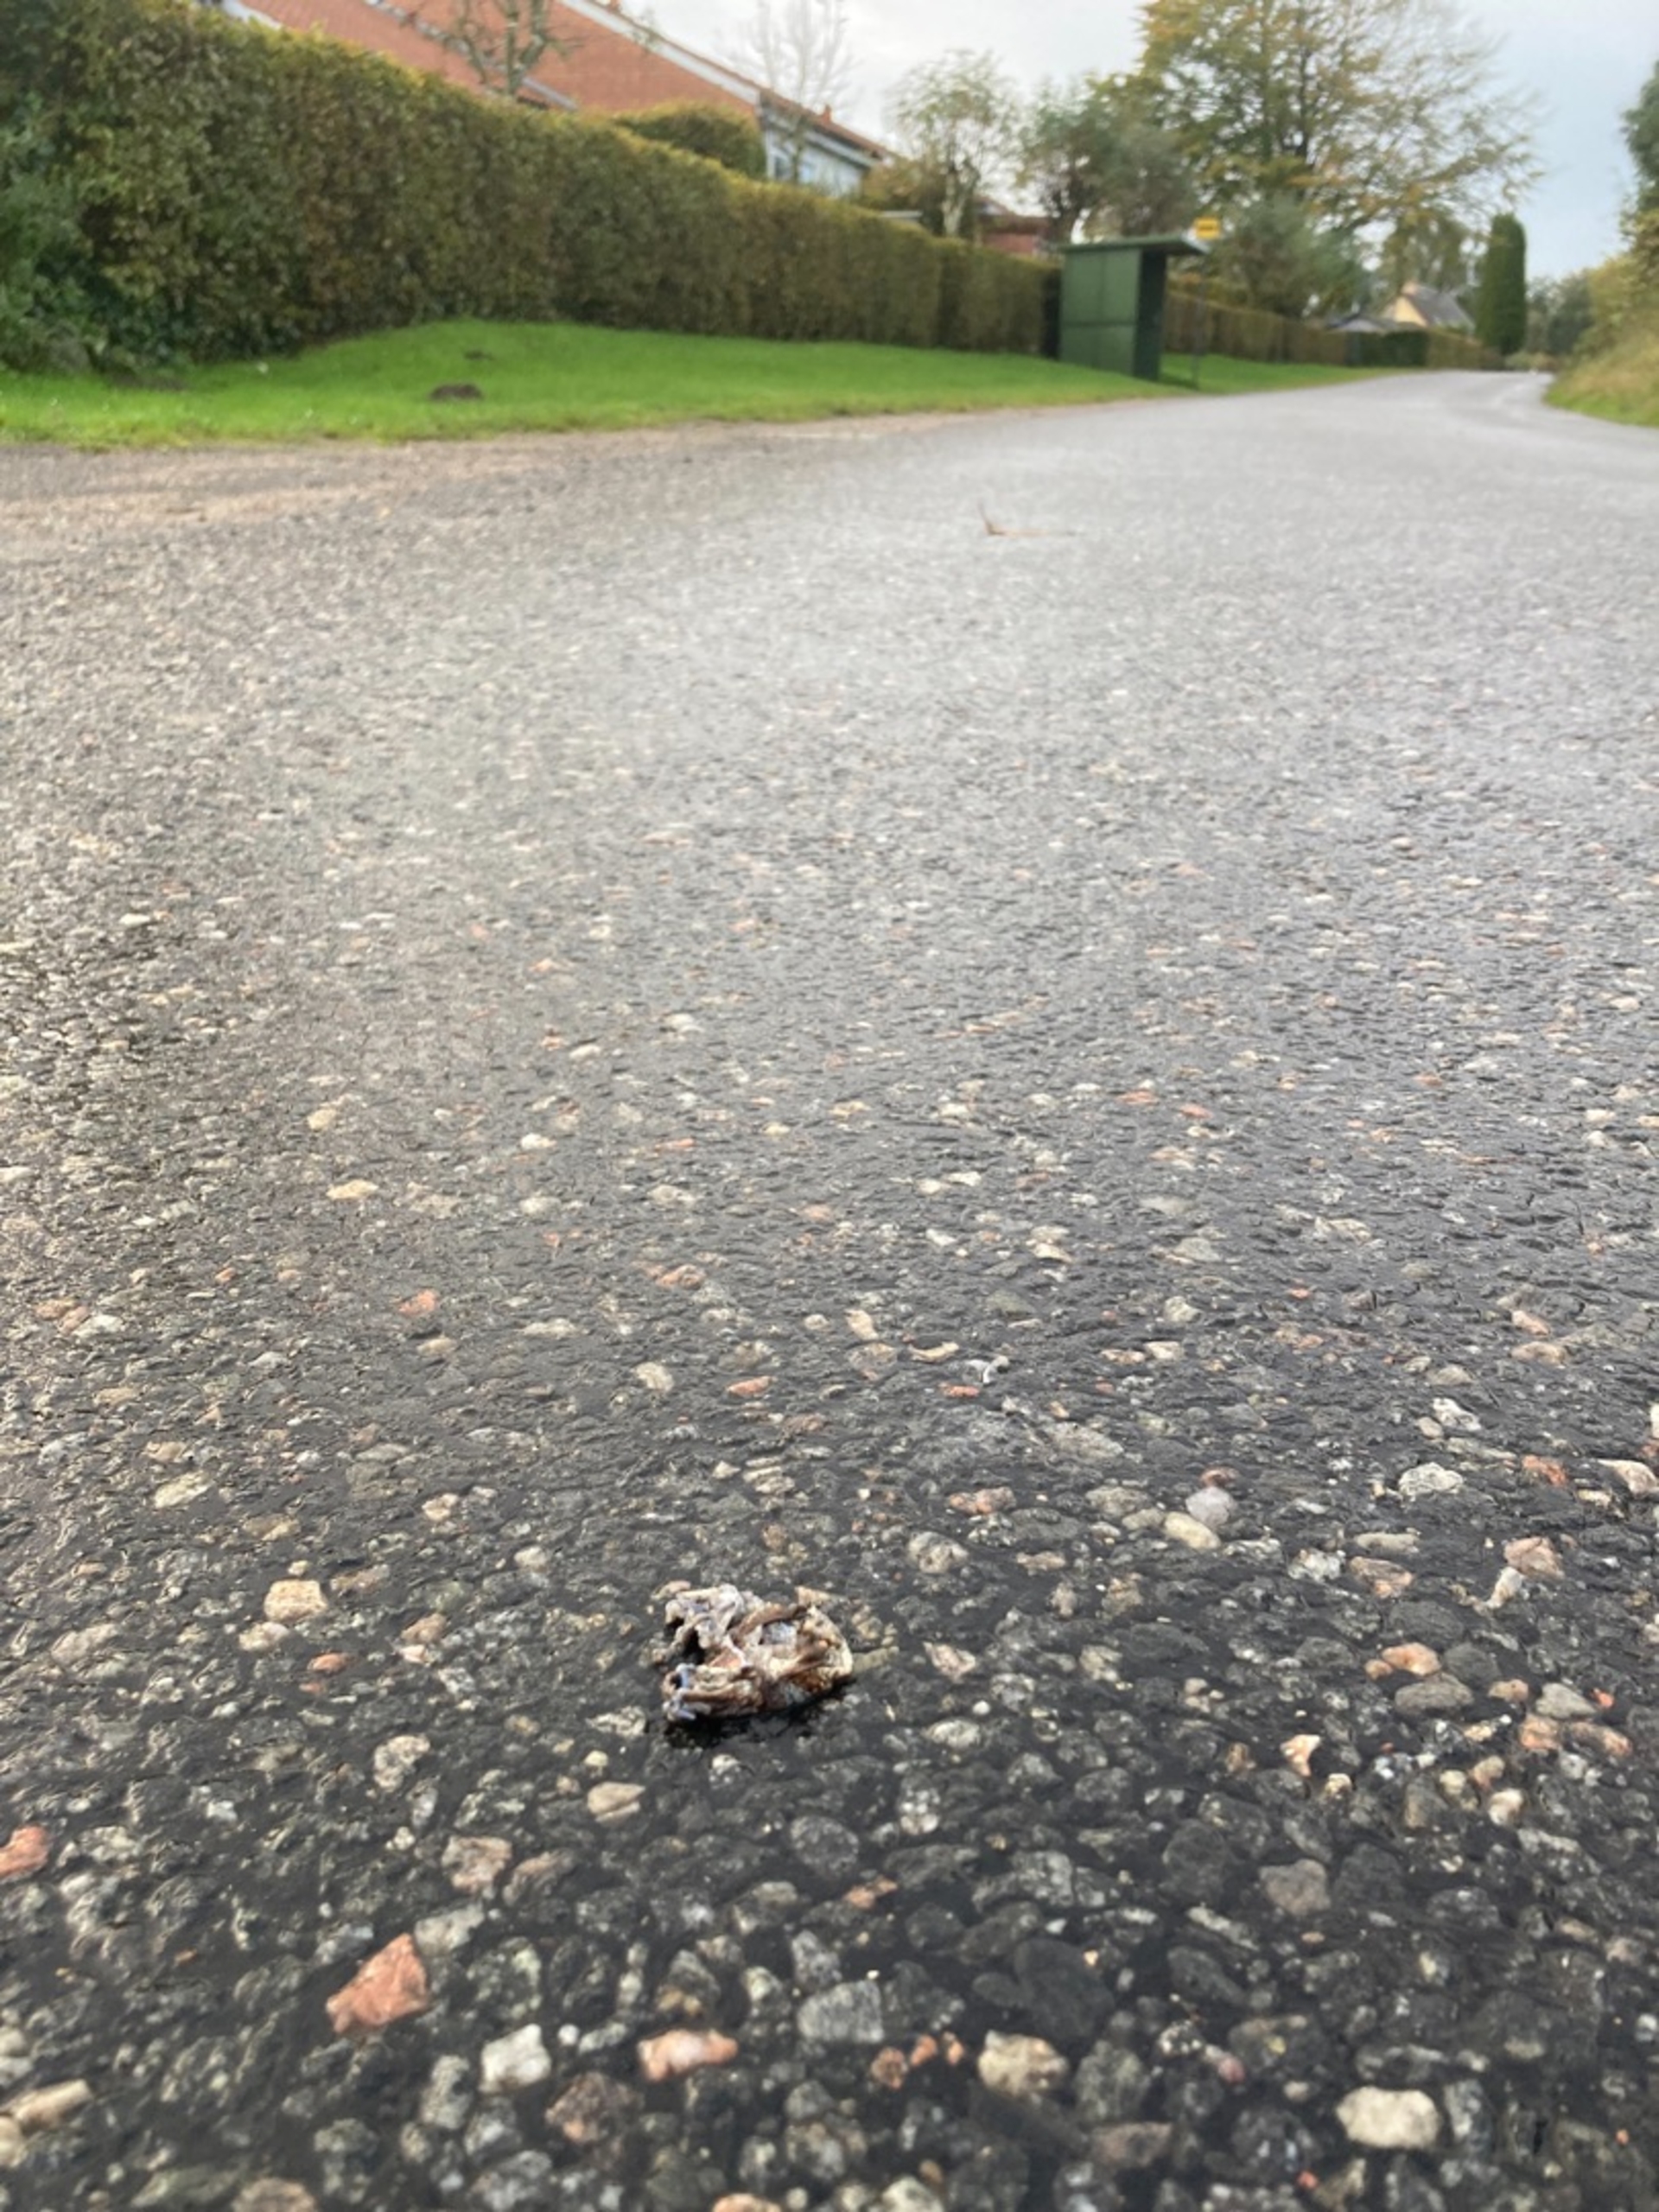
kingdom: Animalia
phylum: Chordata
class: Amphibia
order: Anura
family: Bufonidae
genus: Bufo
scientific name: Bufo bufo
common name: Skrubtudse
